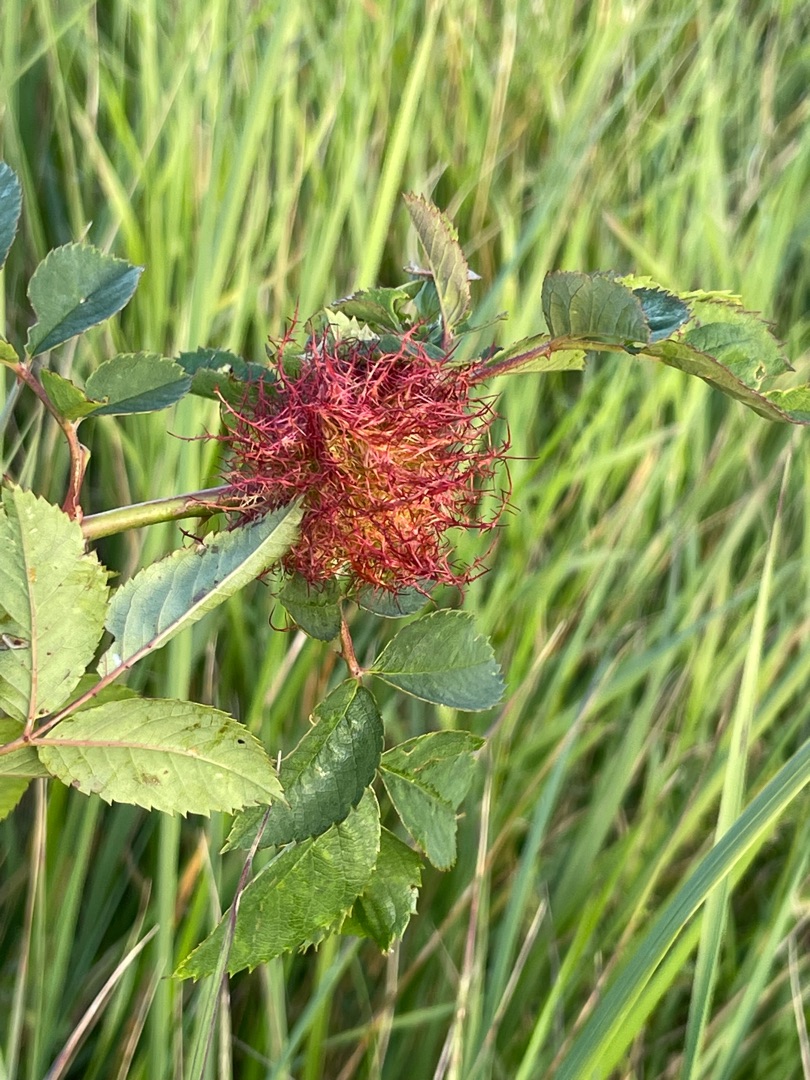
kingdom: Animalia
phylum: Arthropoda
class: Insecta
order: Hymenoptera
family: Cynipidae
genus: Diplolepis
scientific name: Diplolepis rosae
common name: Bedeguargalhveps
